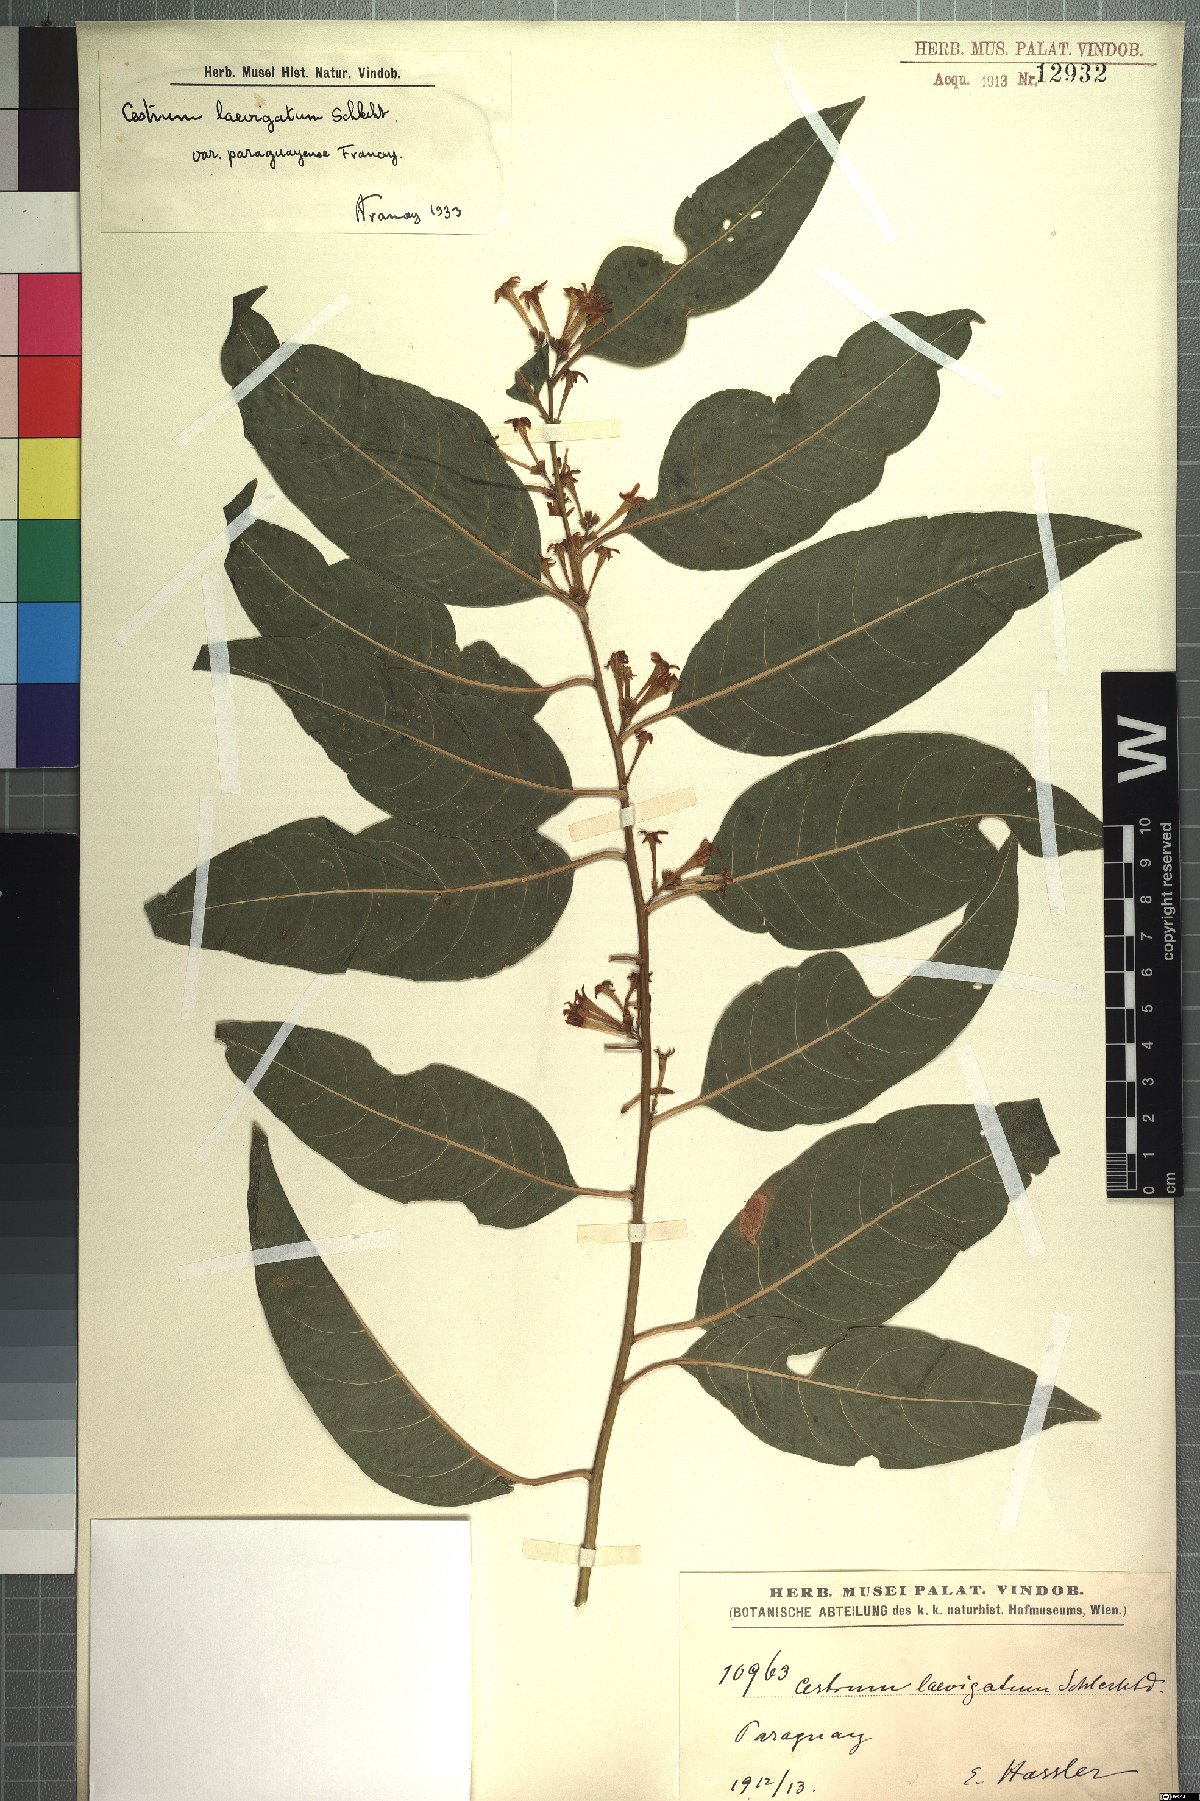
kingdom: Plantae
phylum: Tracheophyta
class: Magnoliopsida
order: Solanales
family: Solanaceae
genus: Cestrum
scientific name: Cestrum laevigatum
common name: Inkberry
